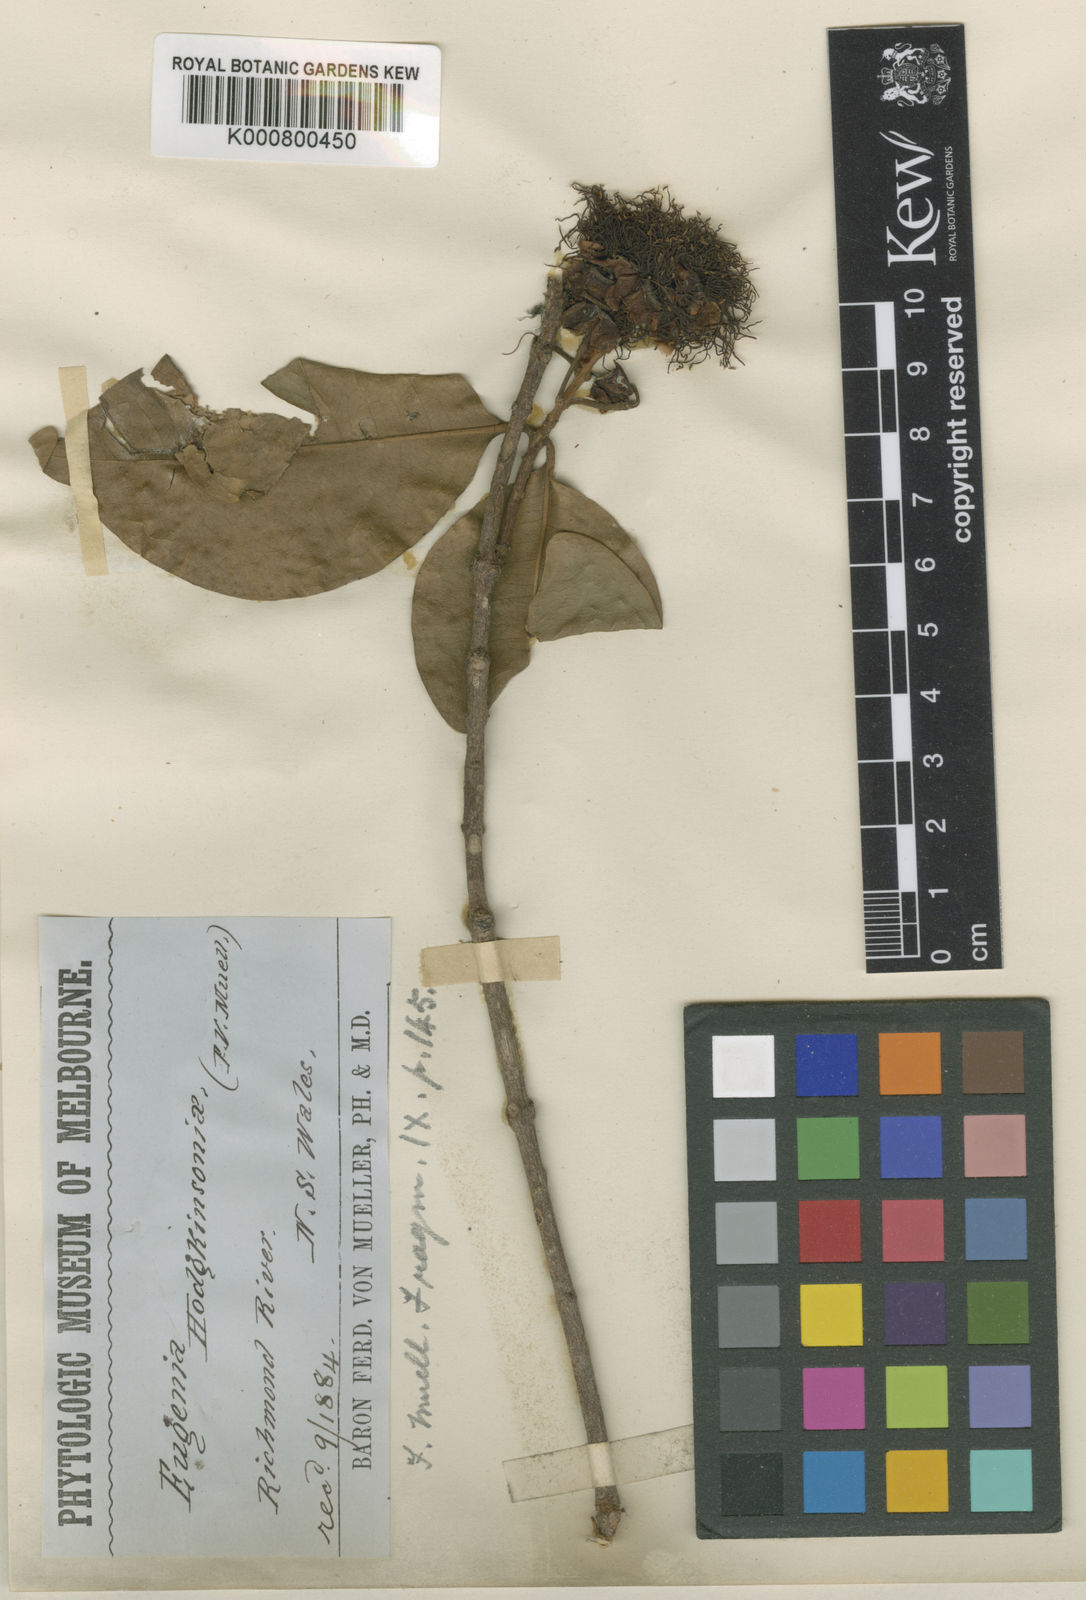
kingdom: Plantae
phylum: Tracheophyta
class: Magnoliopsida
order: Myrtales
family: Myrtaceae
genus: Syzygium
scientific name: Syzygium hodgkinsoniae
